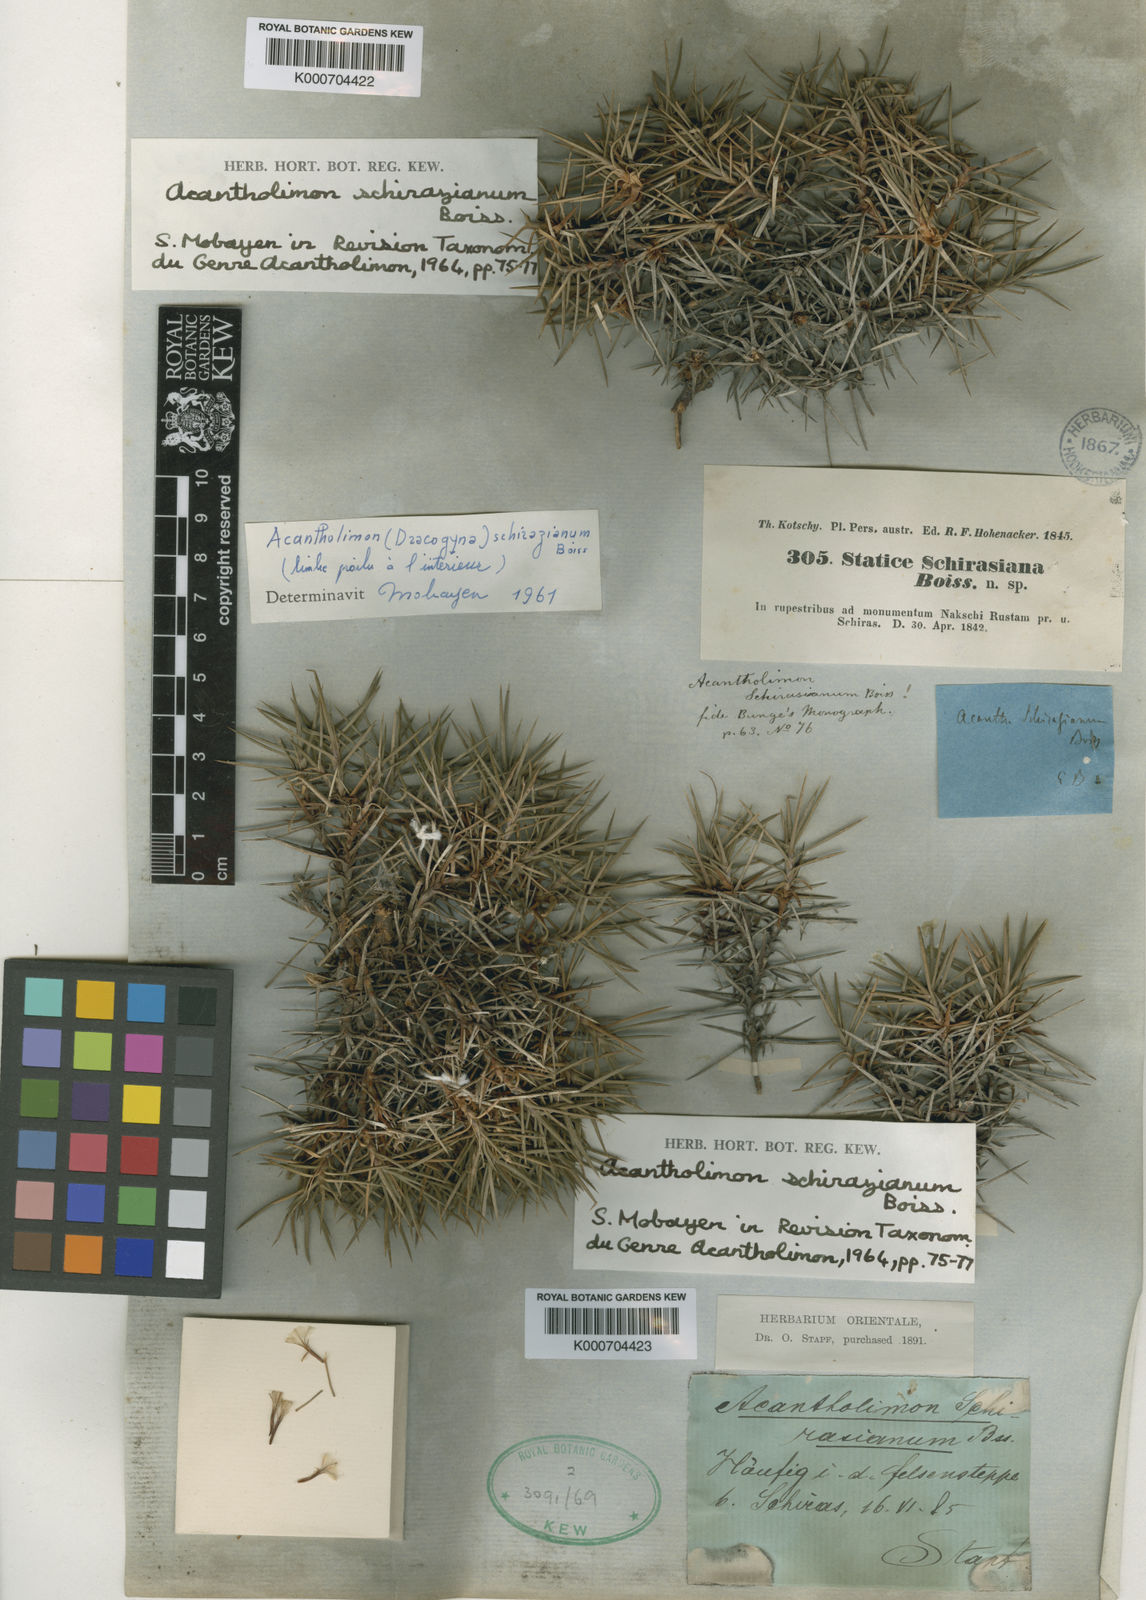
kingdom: Plantae
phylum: Tracheophyta
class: Magnoliopsida
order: Caryophyllales
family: Plumbaginaceae
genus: Acantholimon
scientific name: Acantholimon schirazianum
